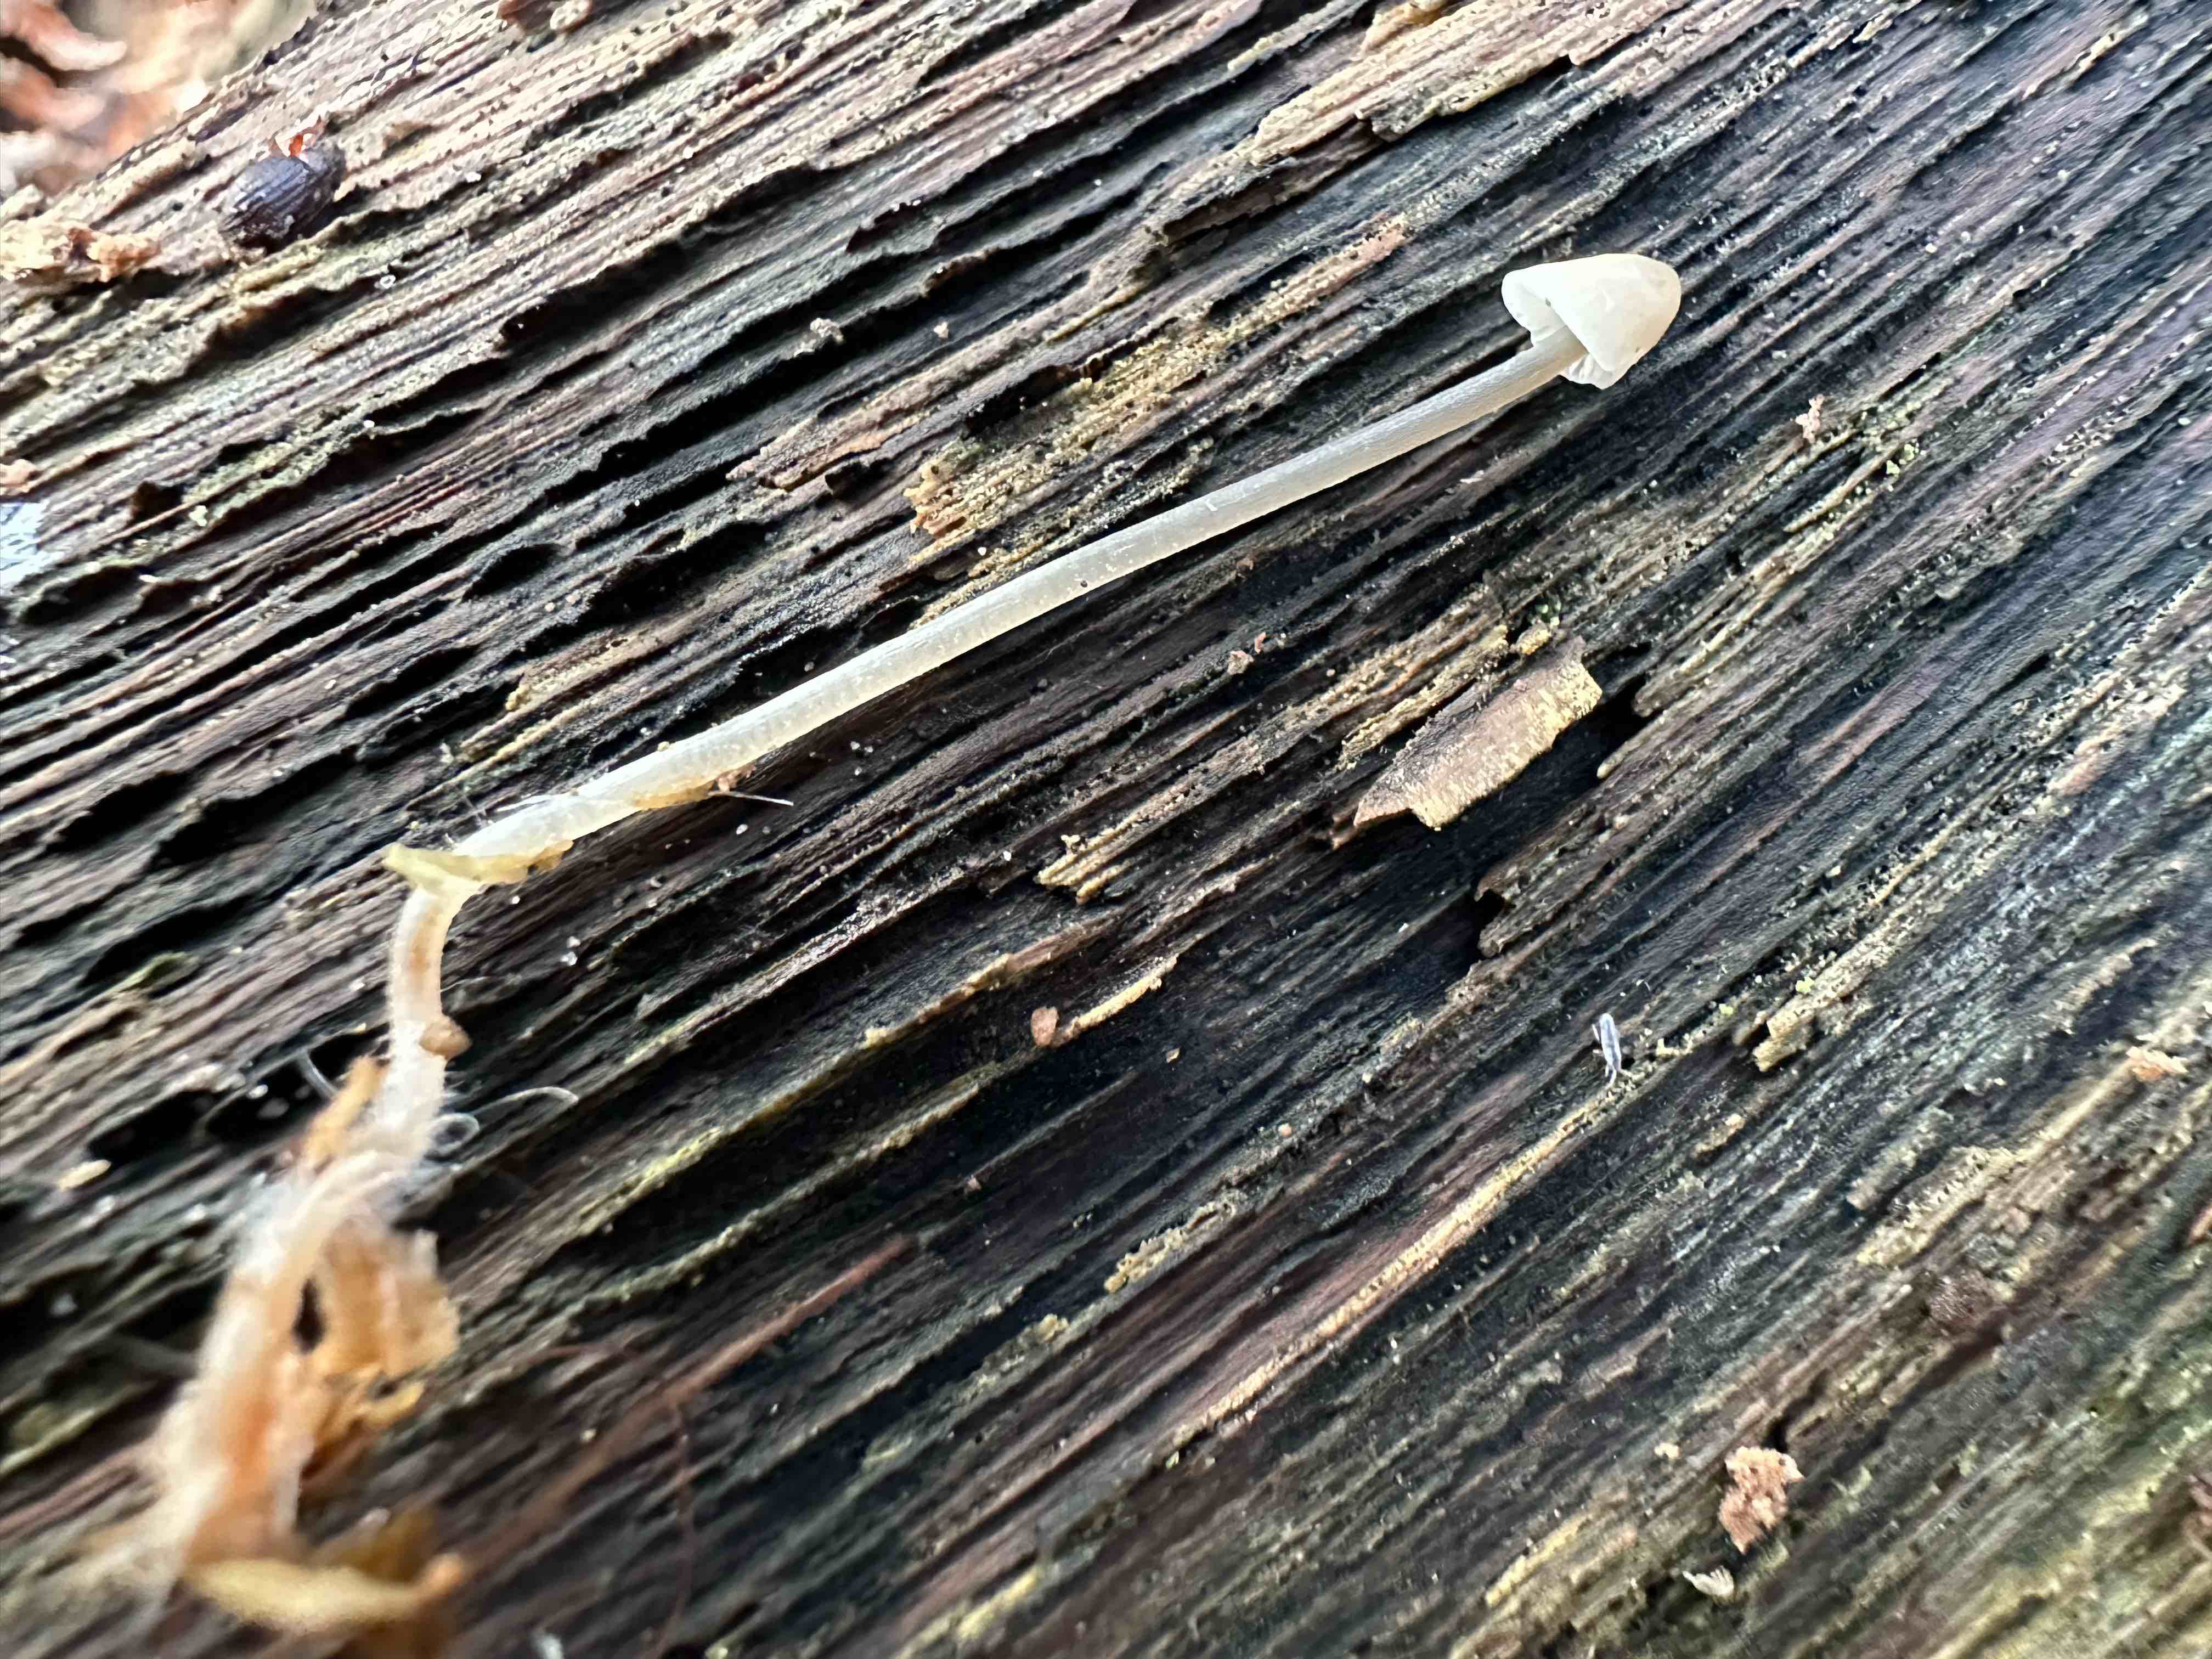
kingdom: Fungi
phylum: Basidiomycota
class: Agaricomycetes
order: Agaricales
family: Mycenaceae
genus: Mycena
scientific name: Mycena
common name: huesvamp
